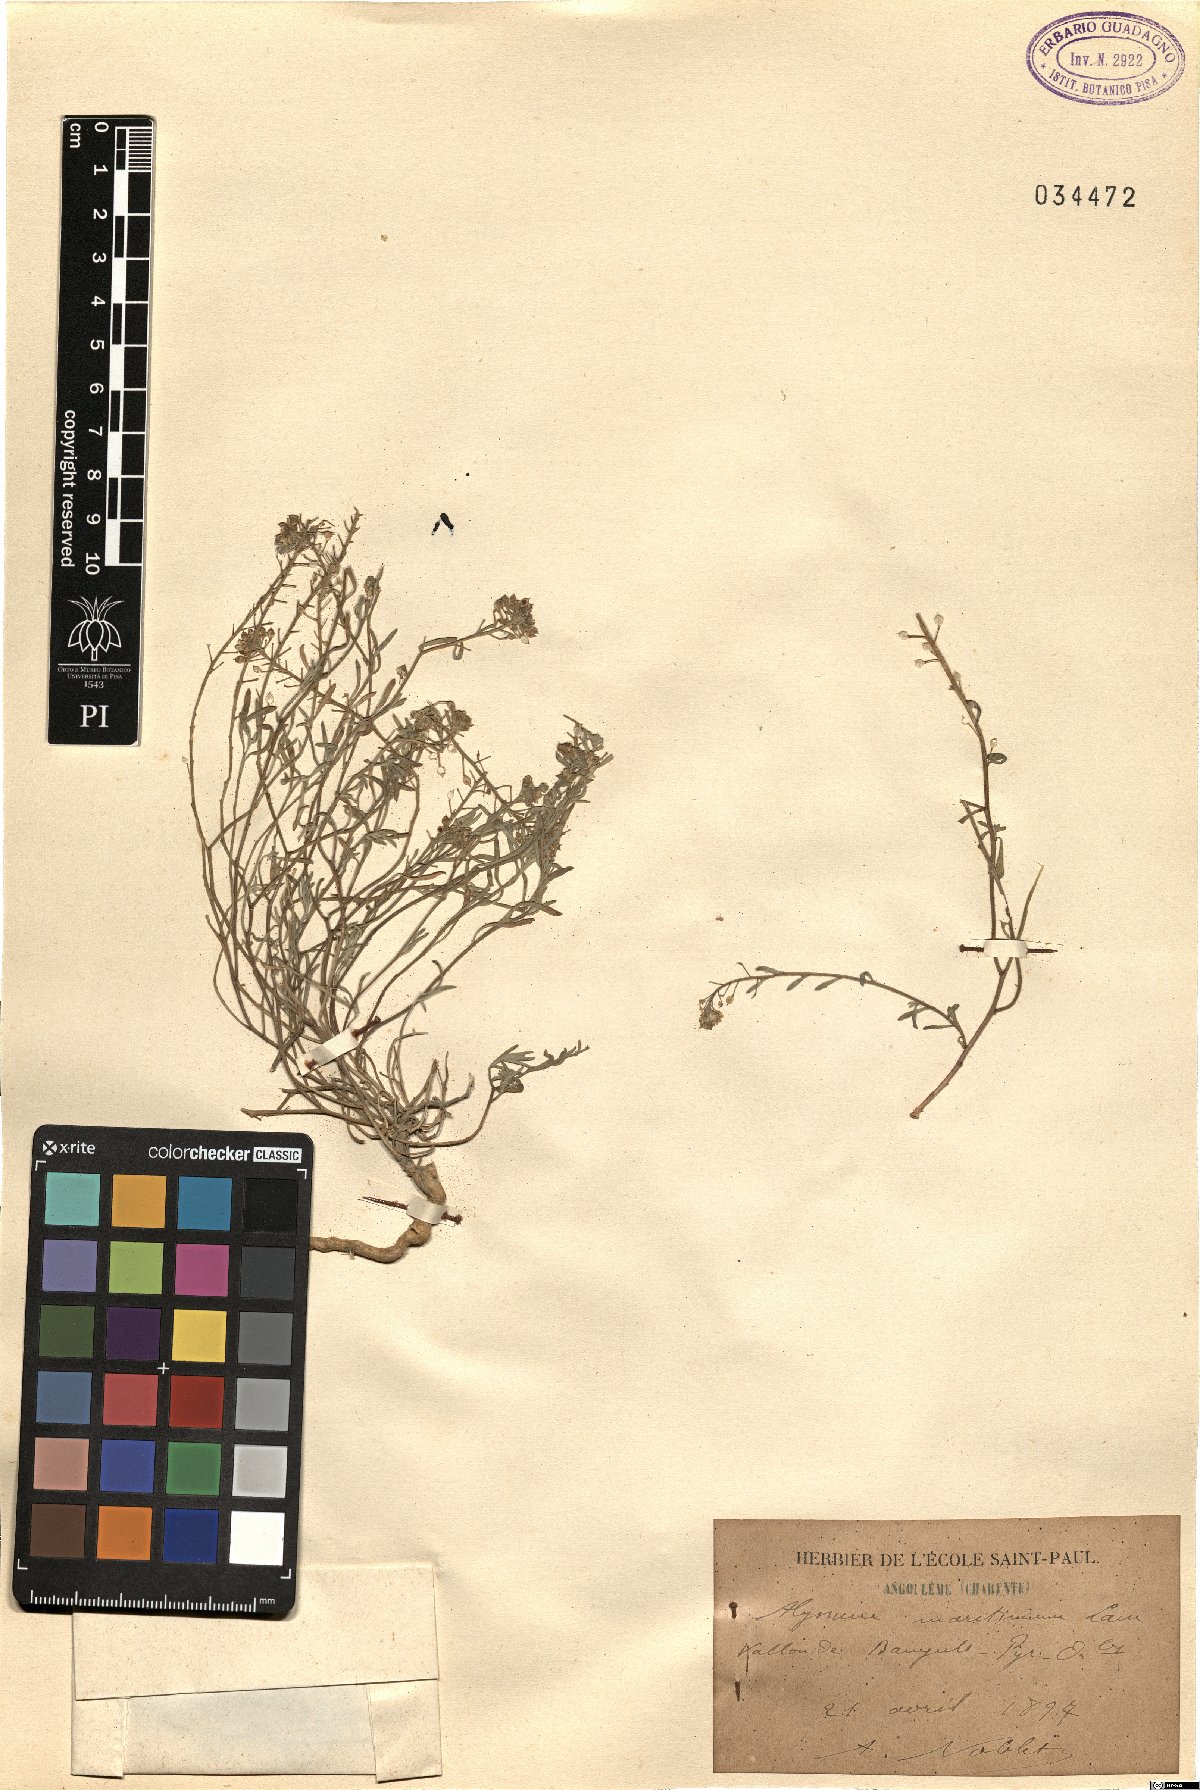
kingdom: Plantae
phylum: Tracheophyta
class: Magnoliopsida
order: Brassicales
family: Brassicaceae
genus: Lobularia
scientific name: Lobularia maritima
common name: Sweet alison
